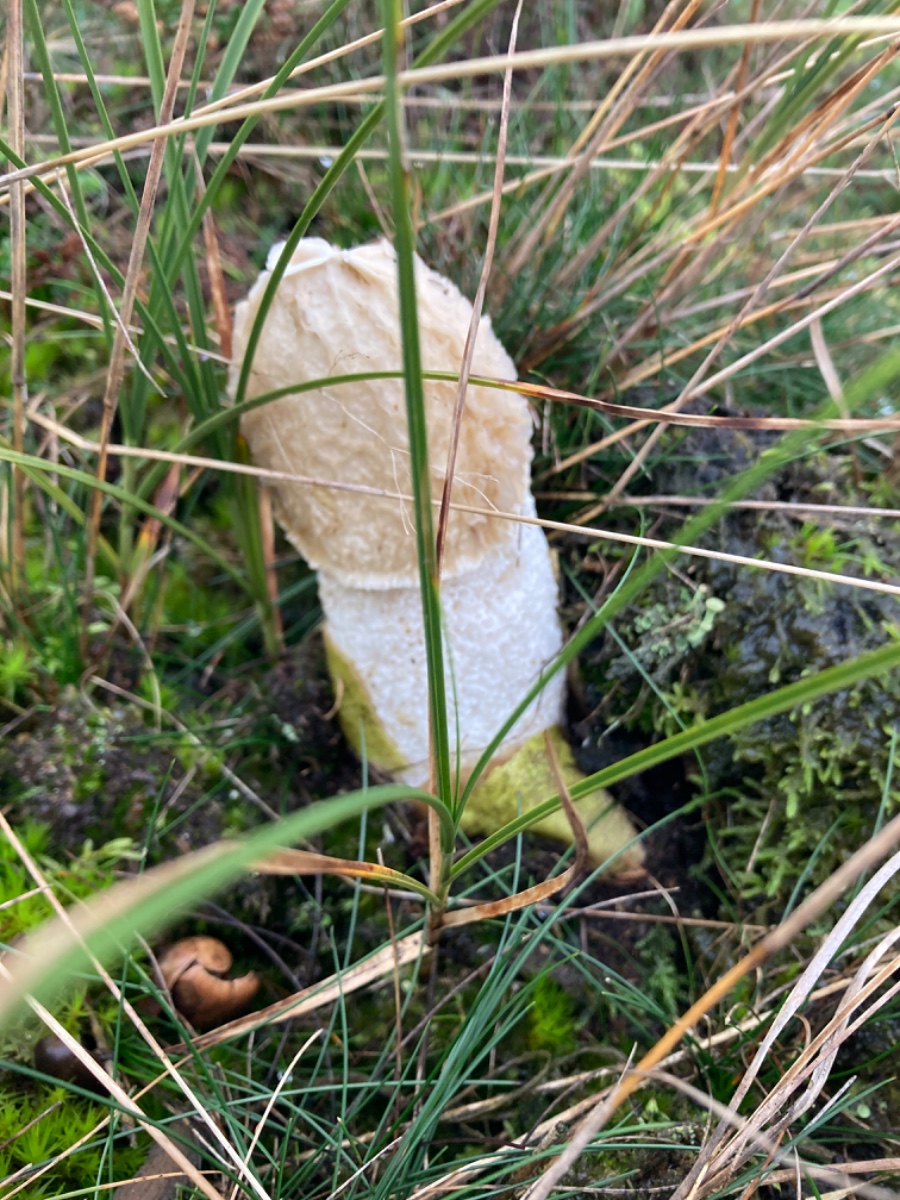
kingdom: Fungi
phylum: Basidiomycota
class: Agaricomycetes
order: Phallales
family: Phallaceae
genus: Phallus
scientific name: Phallus impudicus
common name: almindelig stinksvamp
